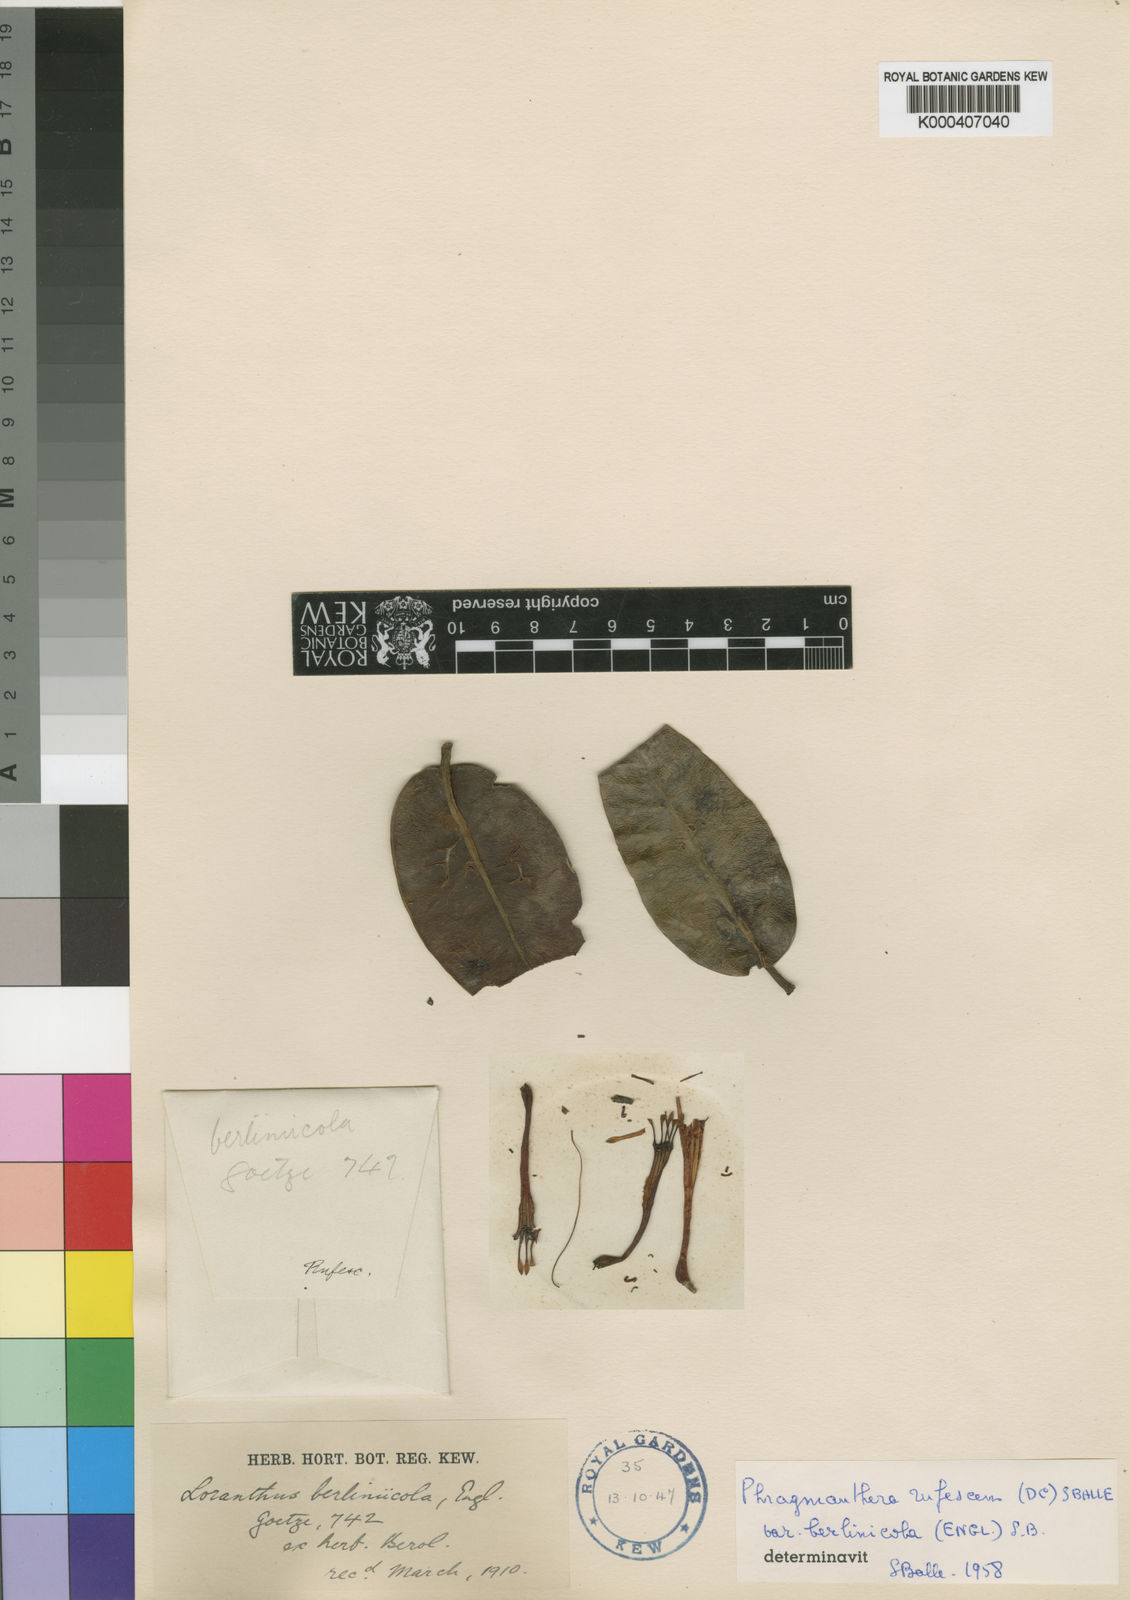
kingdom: Plantae
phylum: Tracheophyta
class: Magnoliopsida
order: Santalales
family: Loranthaceae
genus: Phragmanthera
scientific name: Phragmanthera usuiensis
